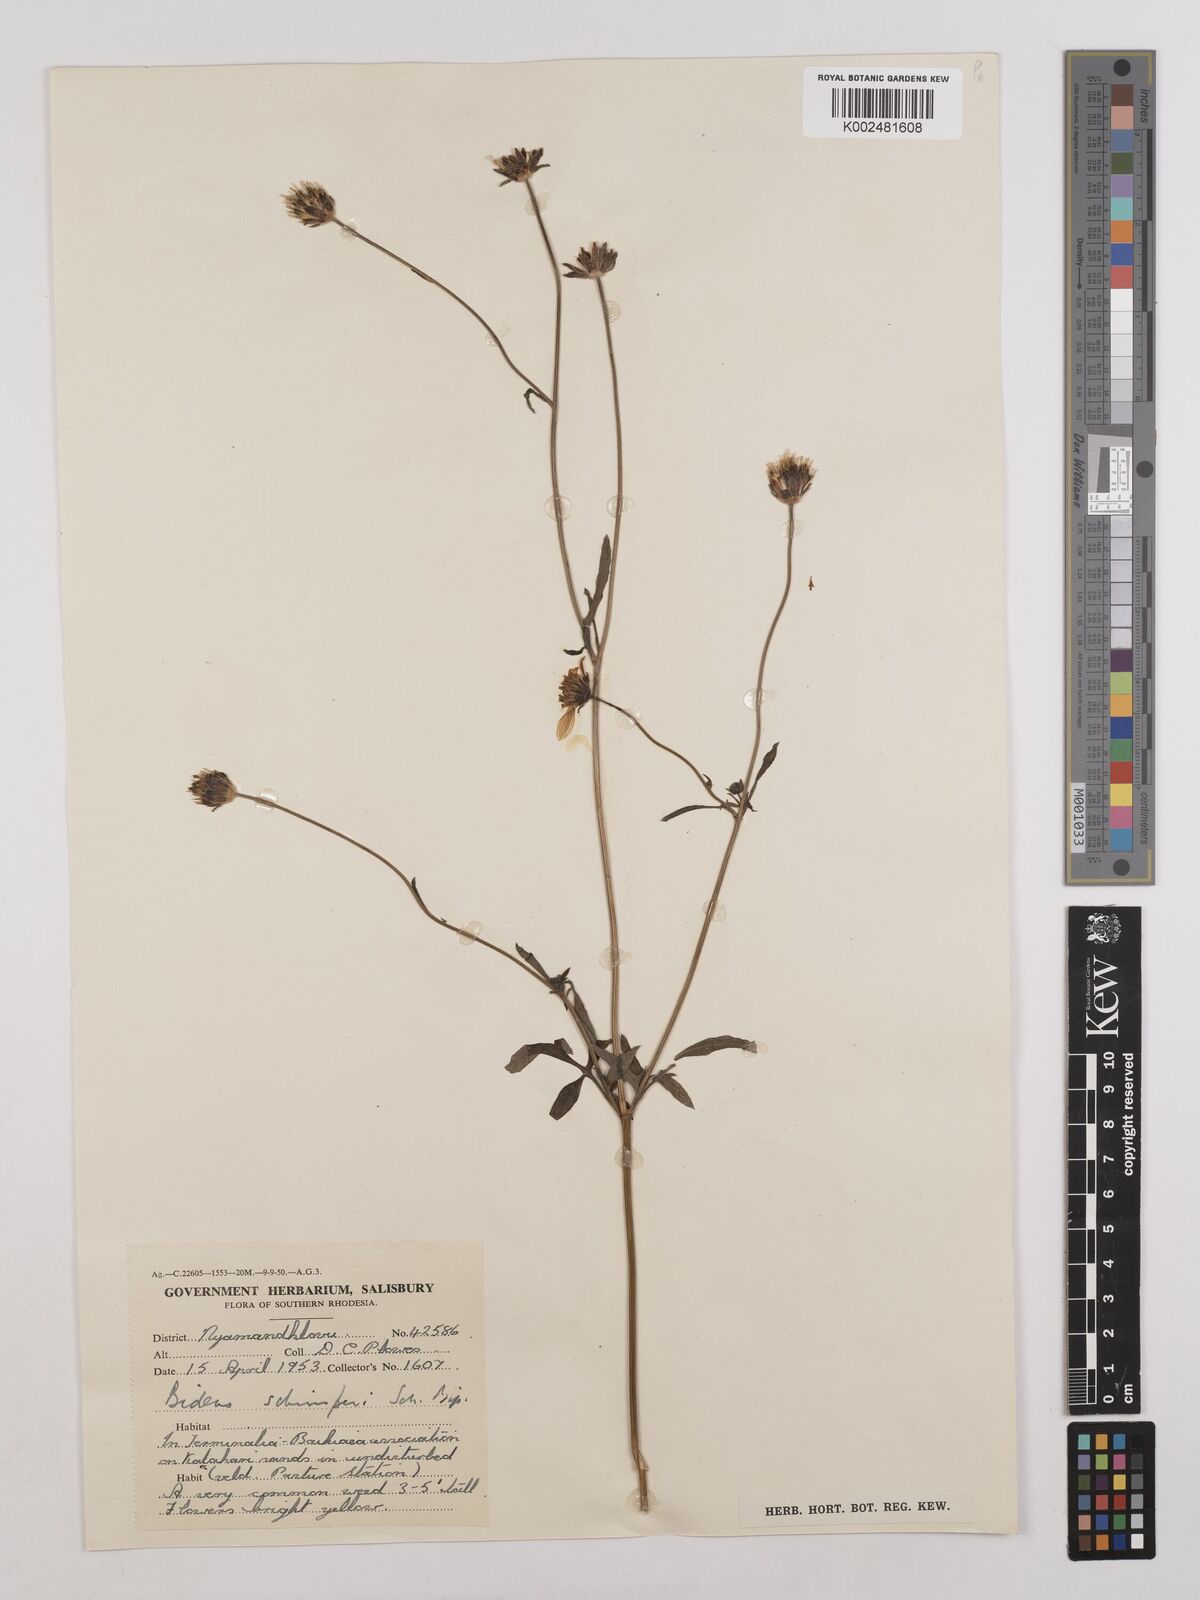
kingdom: Plantae
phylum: Tracheophyta
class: Magnoliopsida
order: Asterales
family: Asteraceae
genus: Bidens
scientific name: Bidens schimperi
